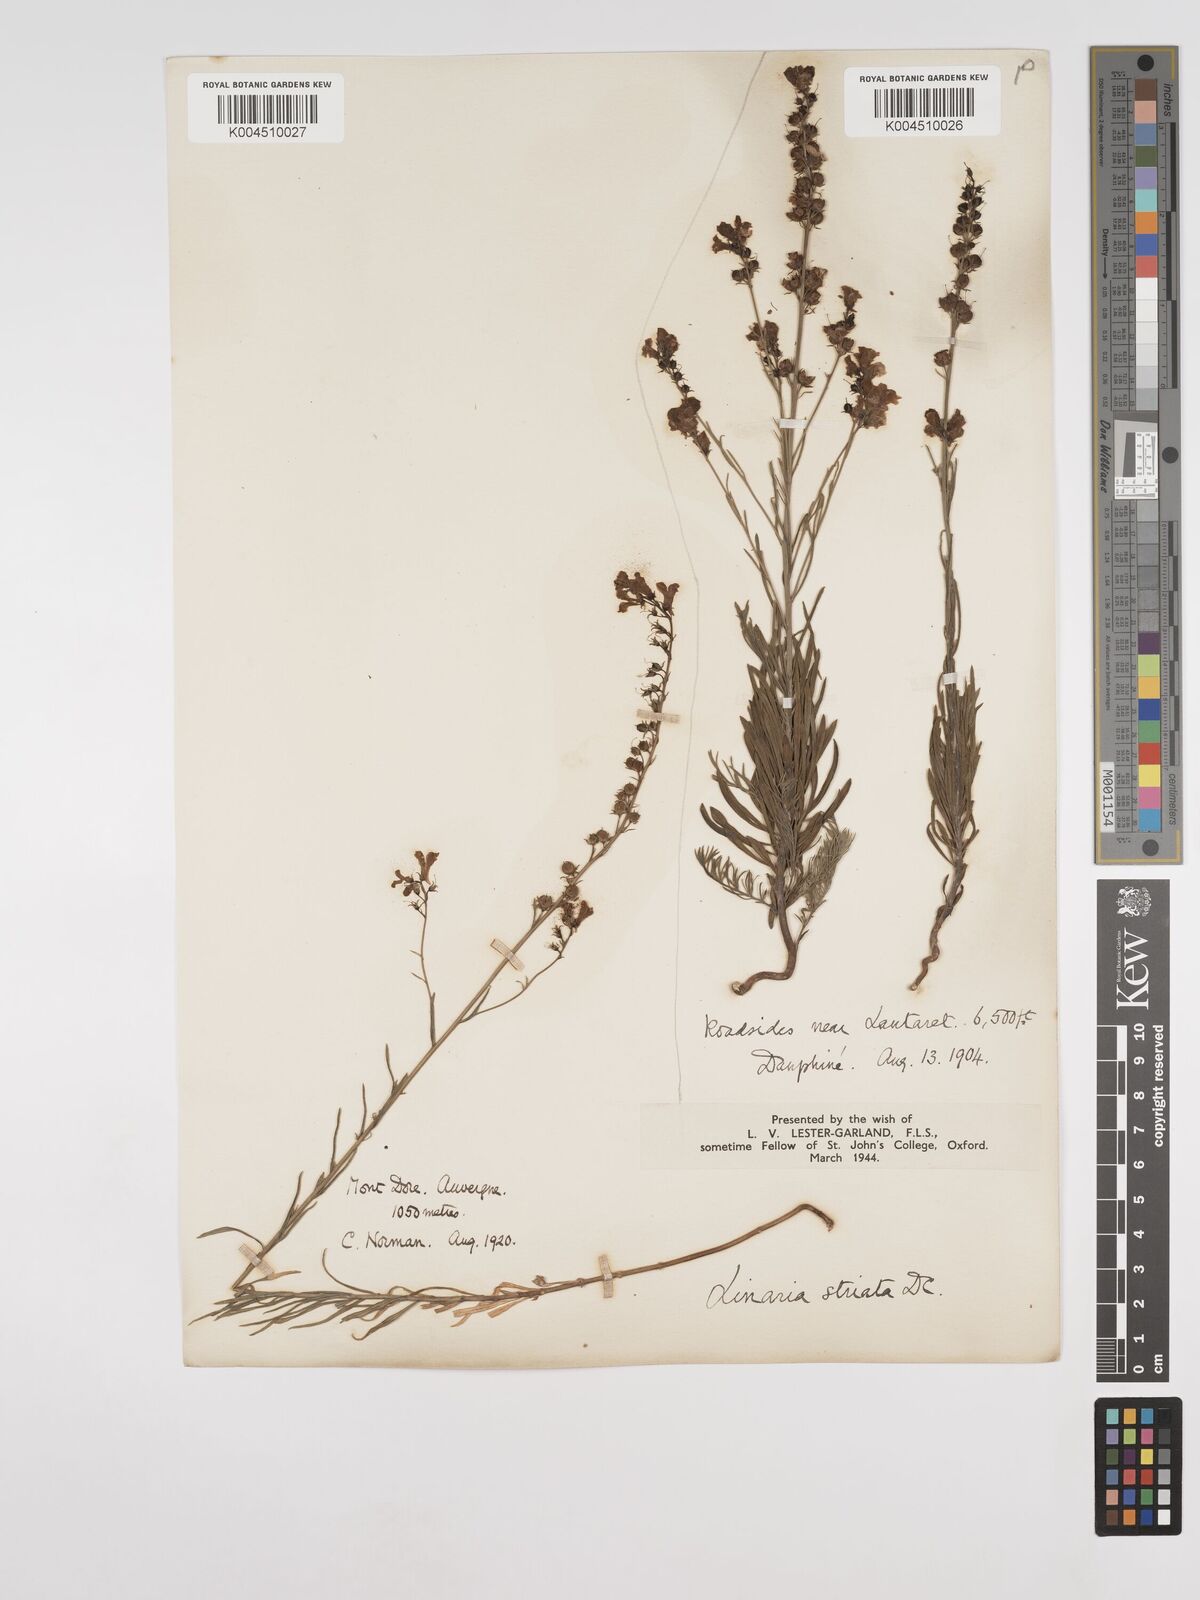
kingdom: Plantae
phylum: Tracheophyta
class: Magnoliopsida
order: Lamiales
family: Plantaginaceae
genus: Linaria
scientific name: Linaria repens
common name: Pale toadflax
